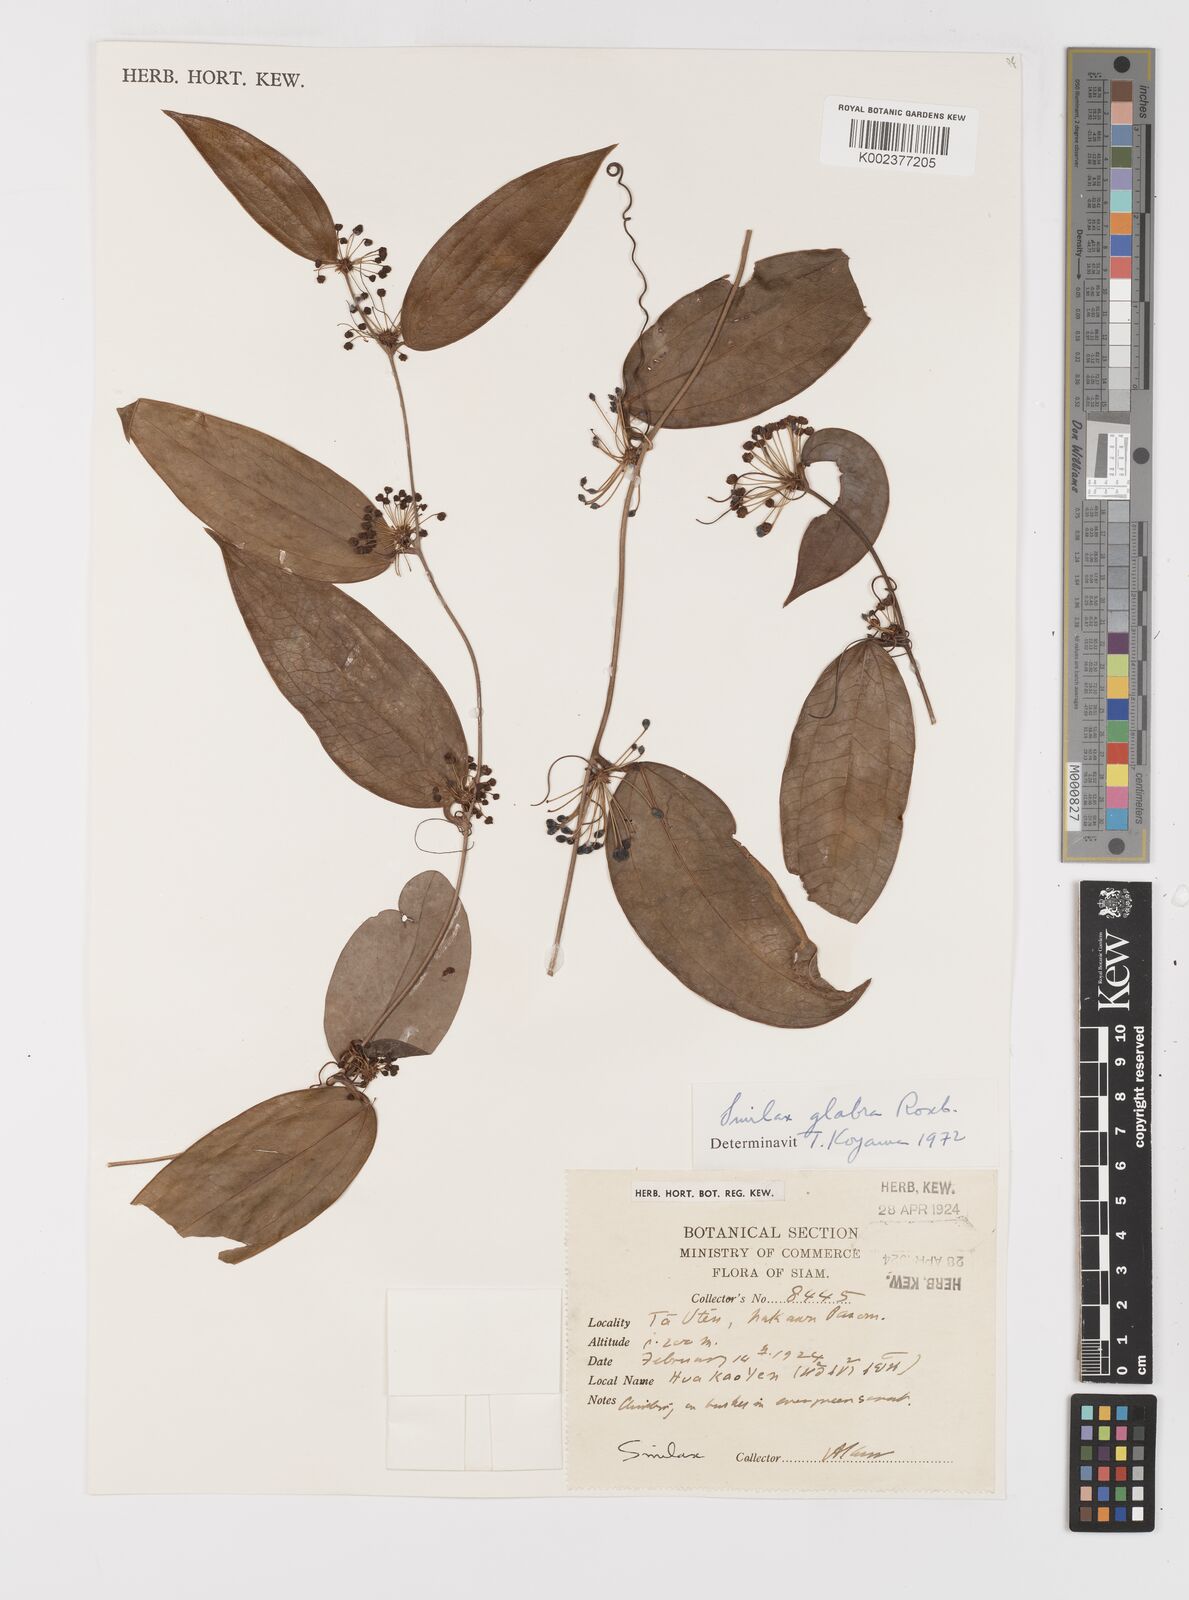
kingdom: Plantae
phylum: Tracheophyta
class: Liliopsida
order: Liliales
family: Smilacaceae
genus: Smilax
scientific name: Smilax glabra
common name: Chinese smilax
